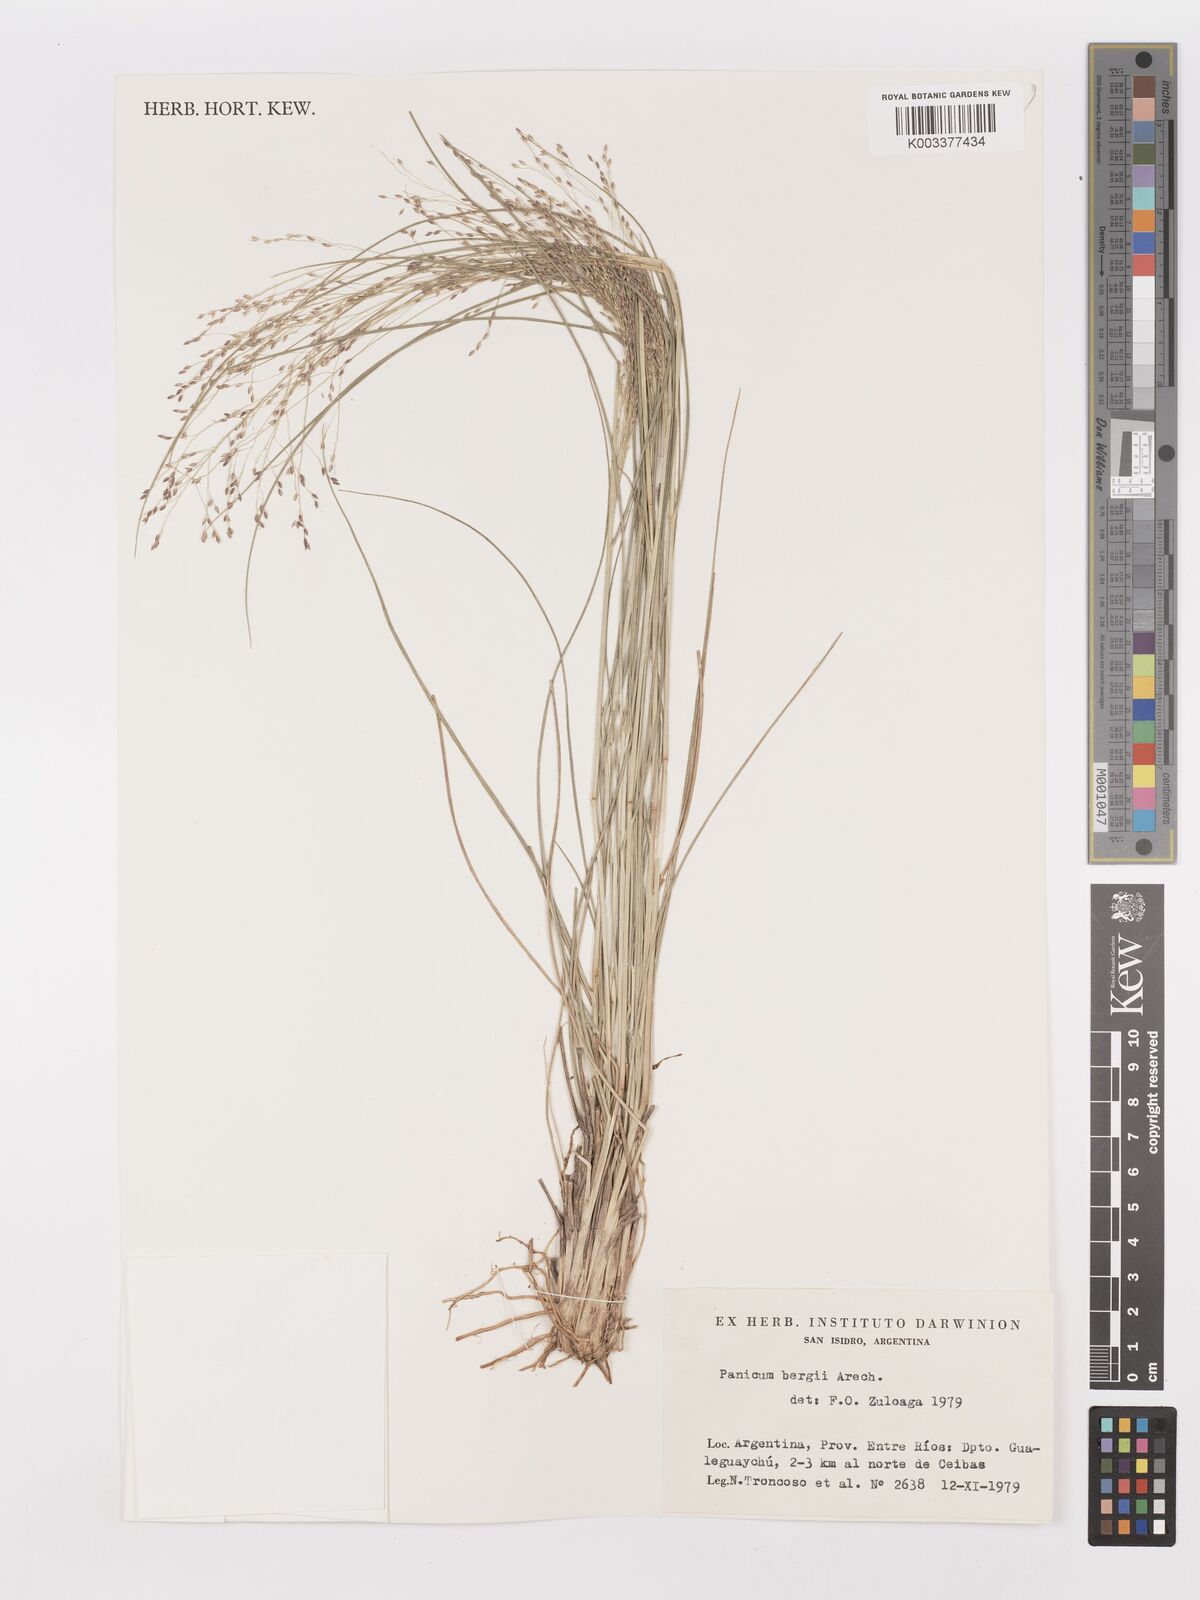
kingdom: Plantae
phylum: Tracheophyta
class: Liliopsida
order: Poales
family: Poaceae
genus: Panicum
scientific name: Panicum bergii
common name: Berg's panicgrass
